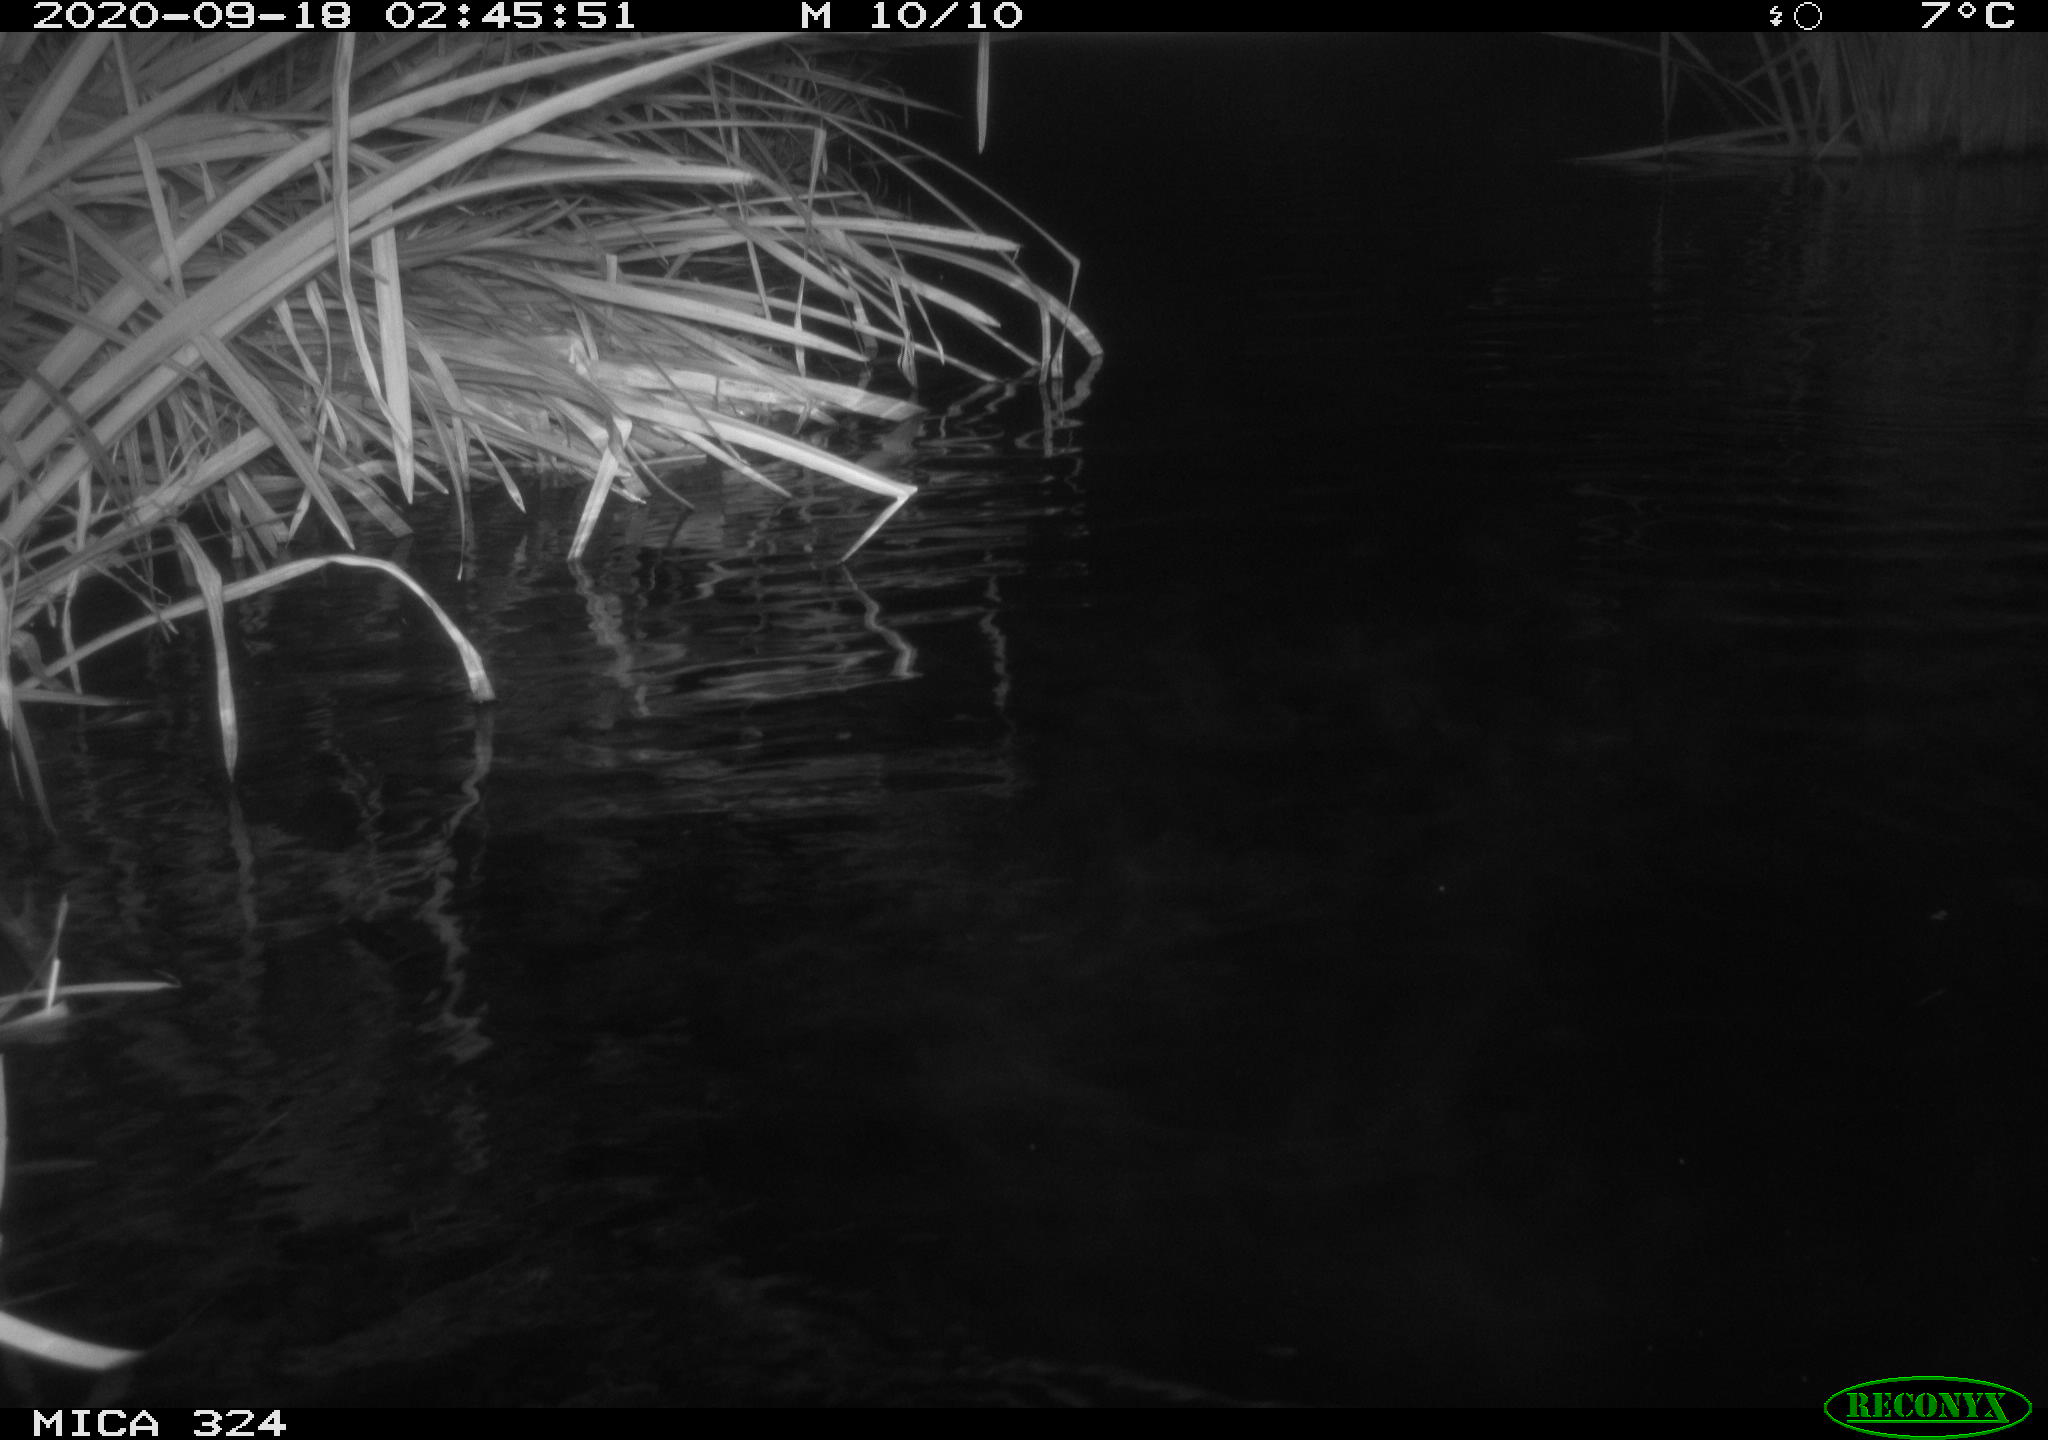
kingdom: Animalia
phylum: Chordata
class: Mammalia
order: Rodentia
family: Cricetidae
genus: Ondatra
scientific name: Ondatra zibethicus
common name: Muskrat
